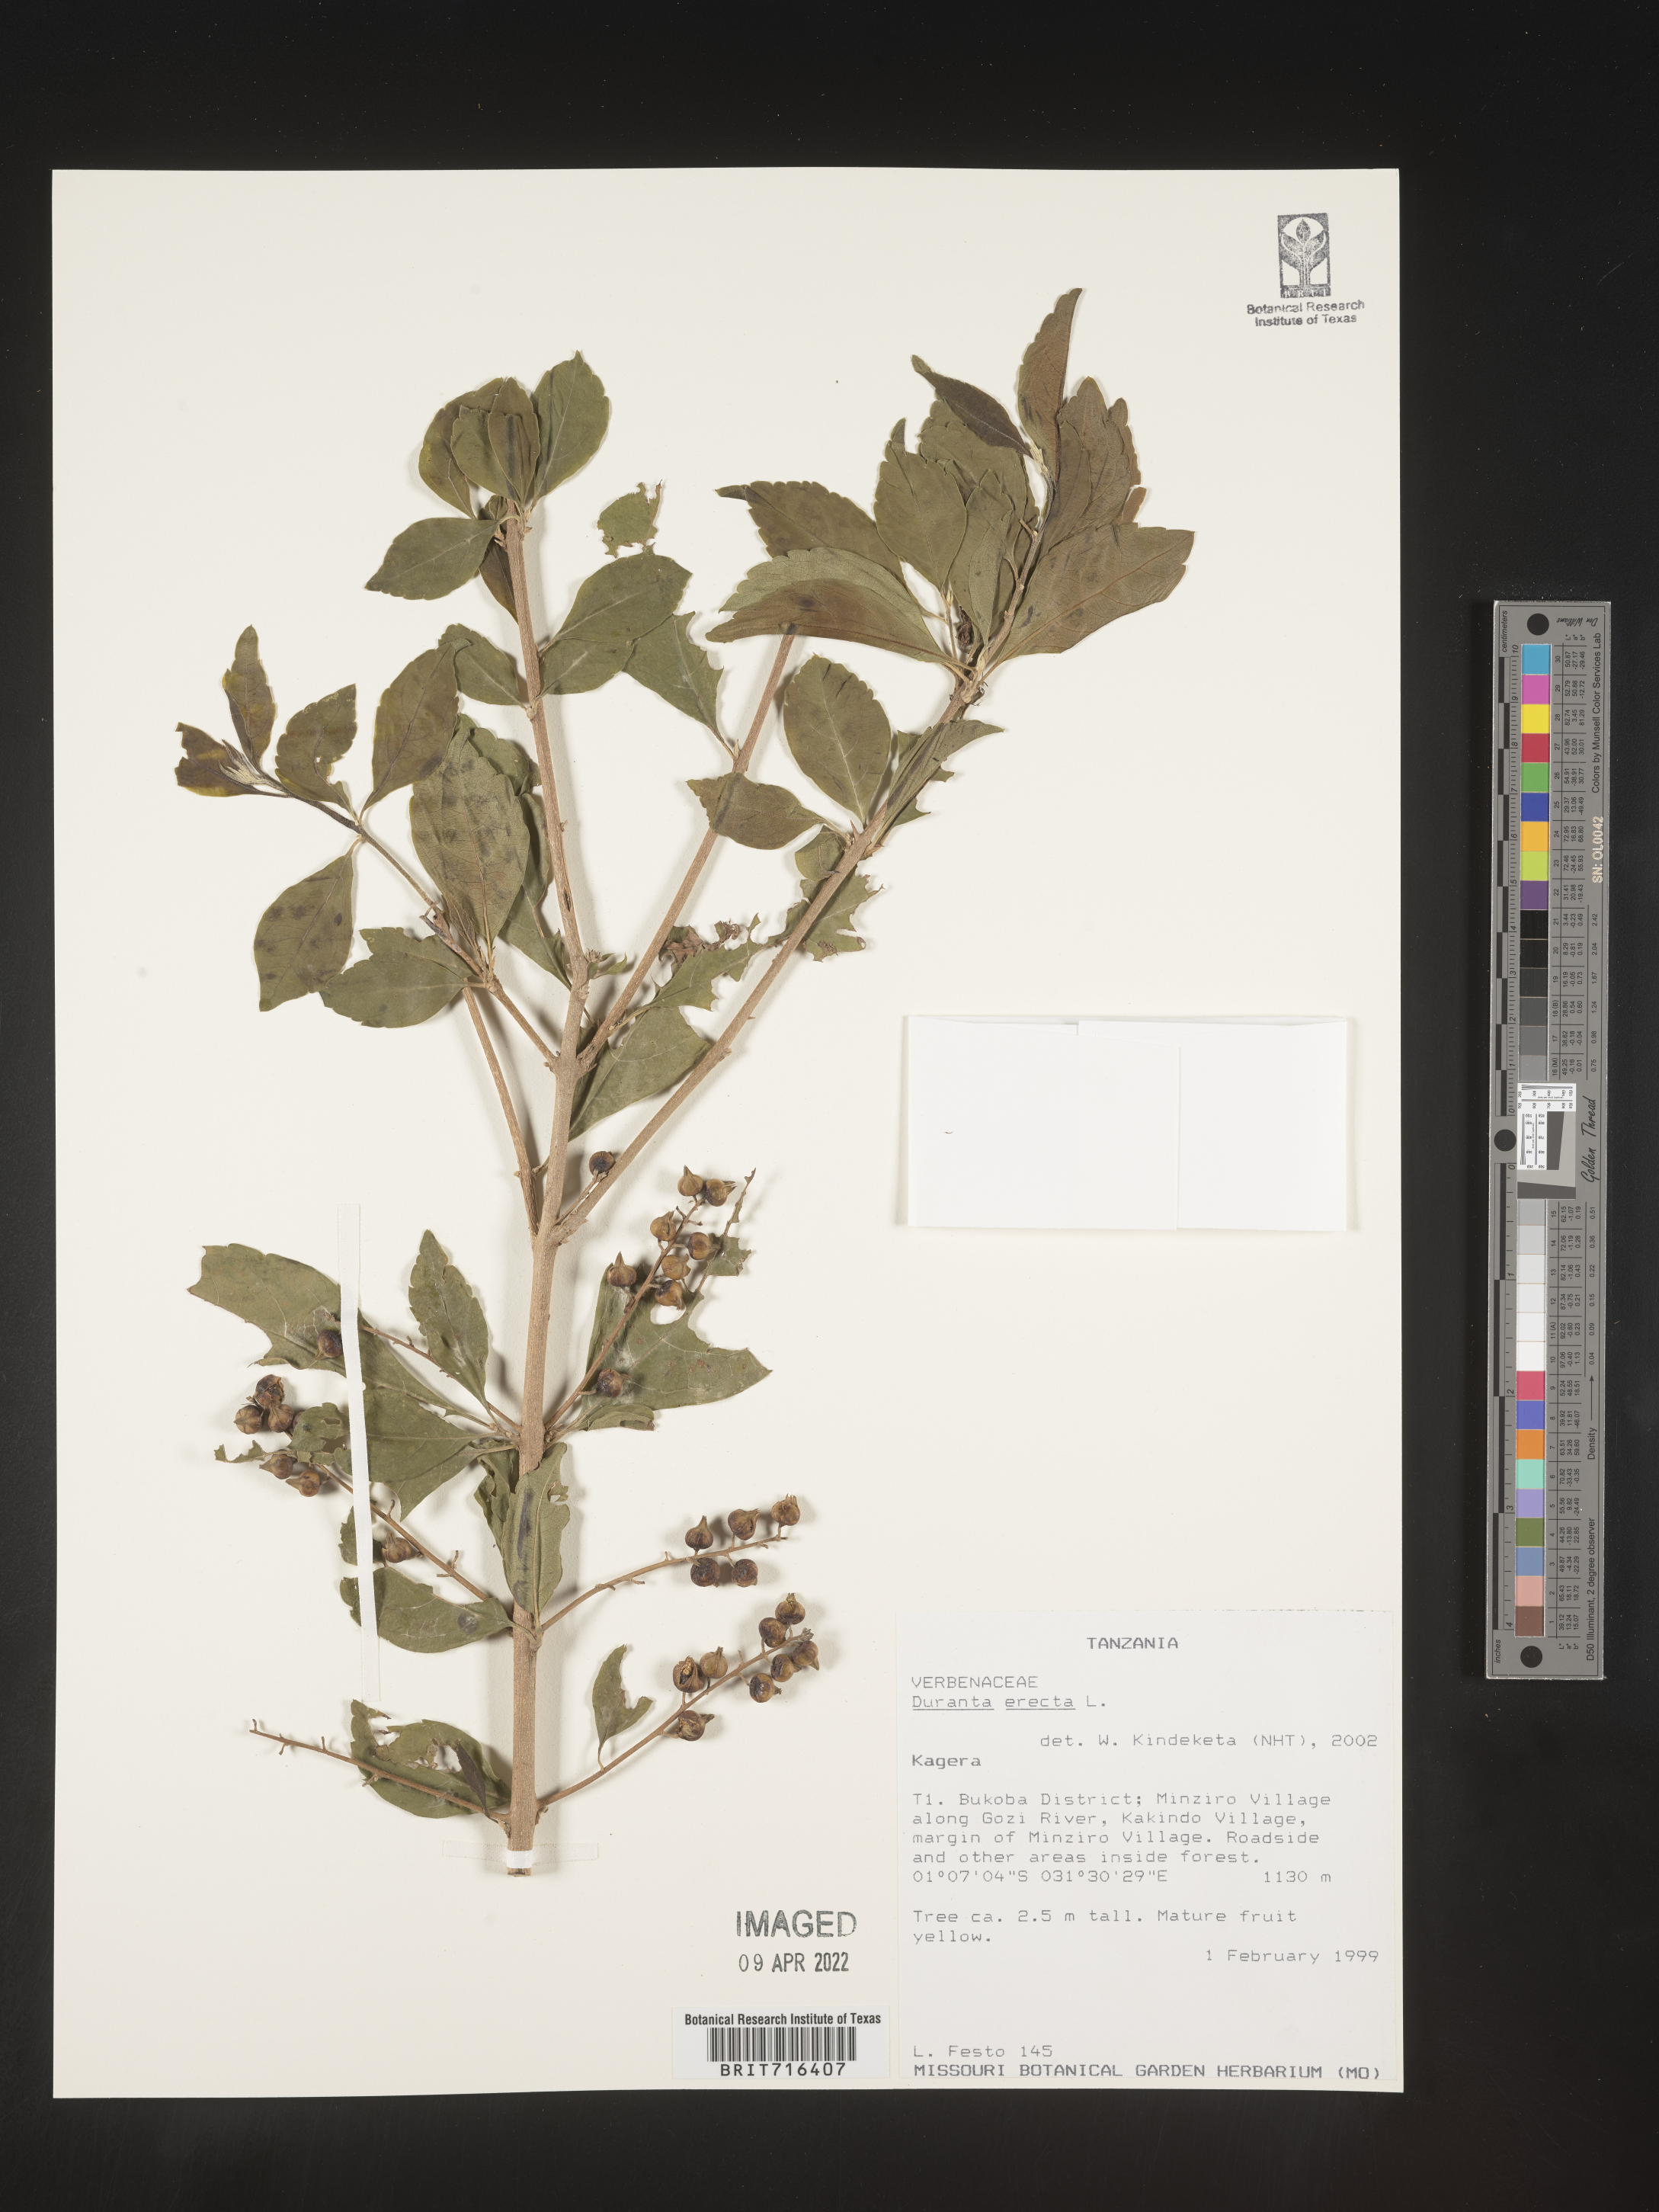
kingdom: Plantae
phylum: Tracheophyta
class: Magnoliopsida
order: Lamiales
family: Verbenaceae
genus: Duranta
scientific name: Duranta
